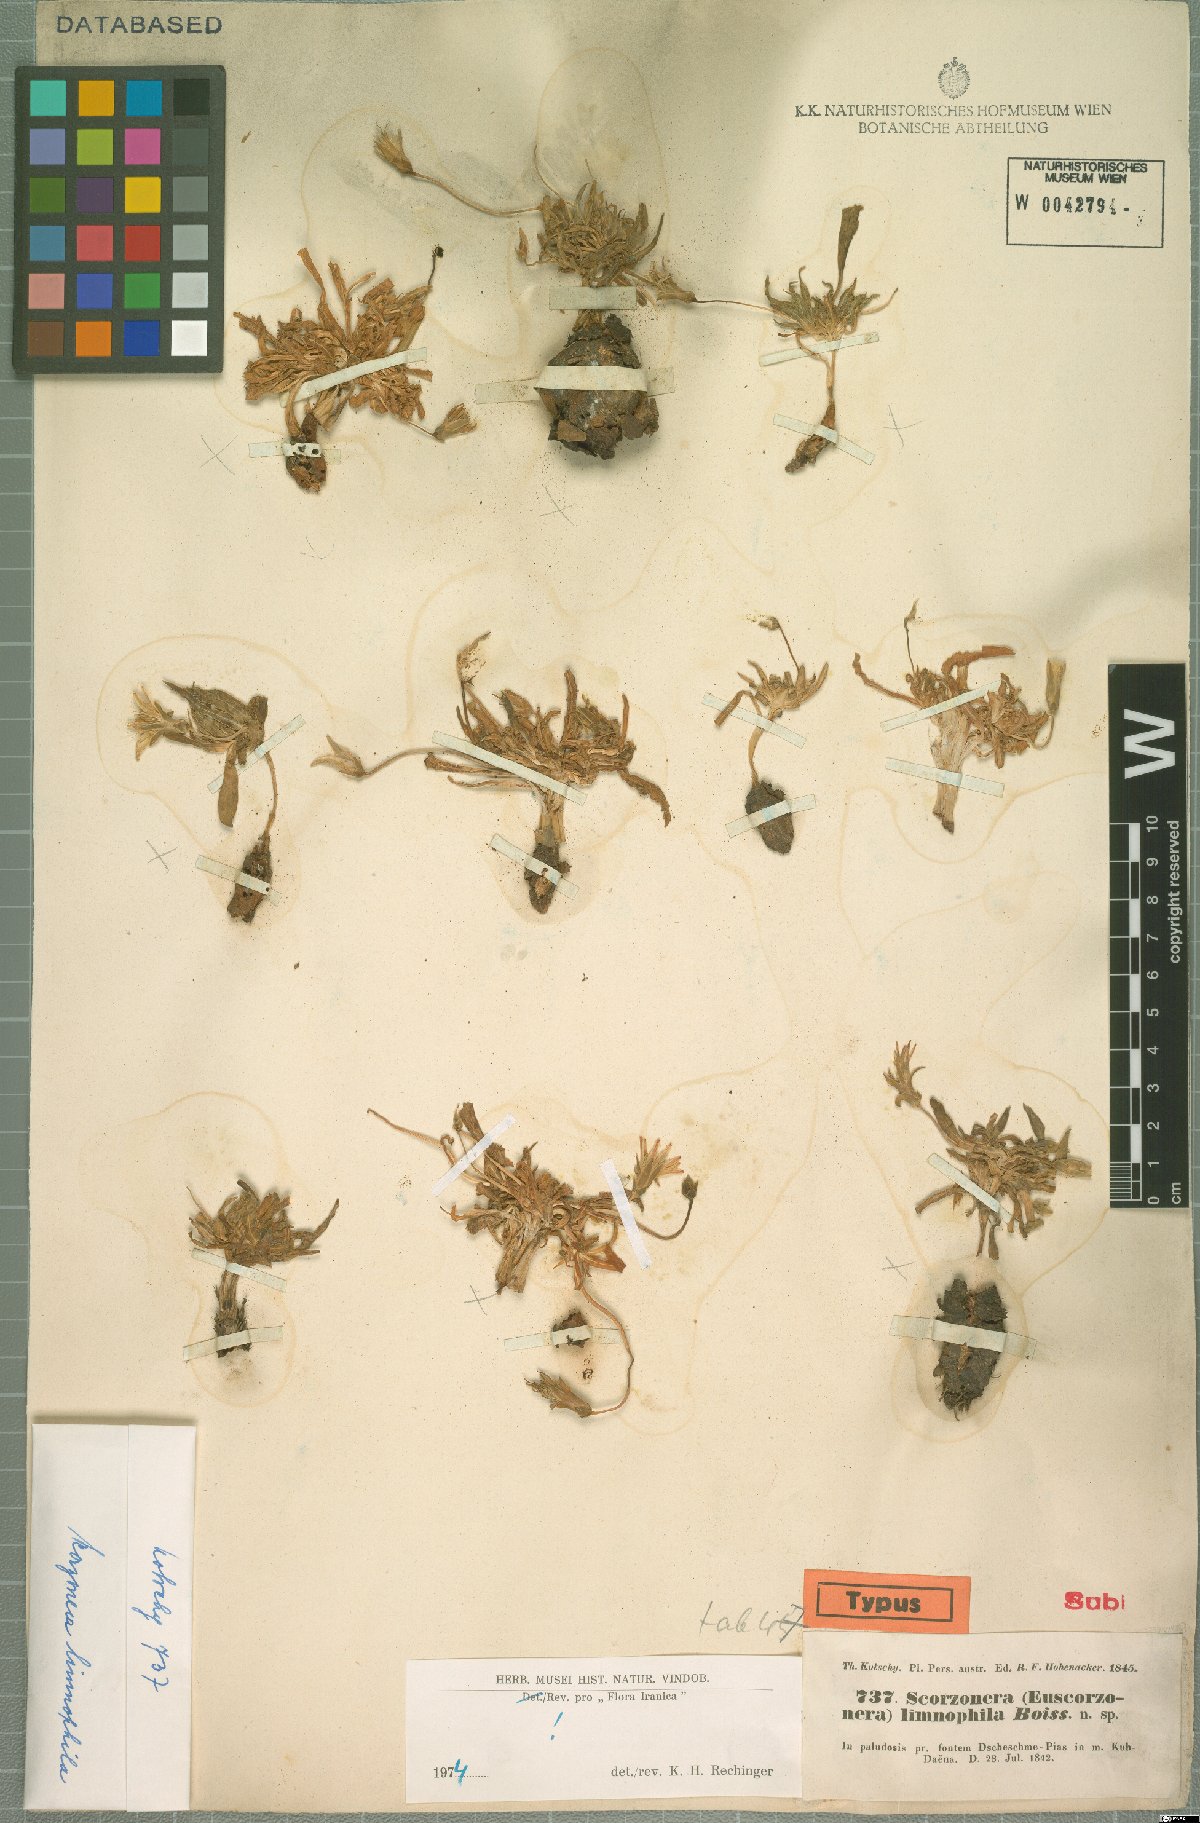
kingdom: Plantae
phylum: Tracheophyta
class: Magnoliopsida
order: Asterales
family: Asteraceae
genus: Scorzonera
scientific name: Scorzonera limnophila
